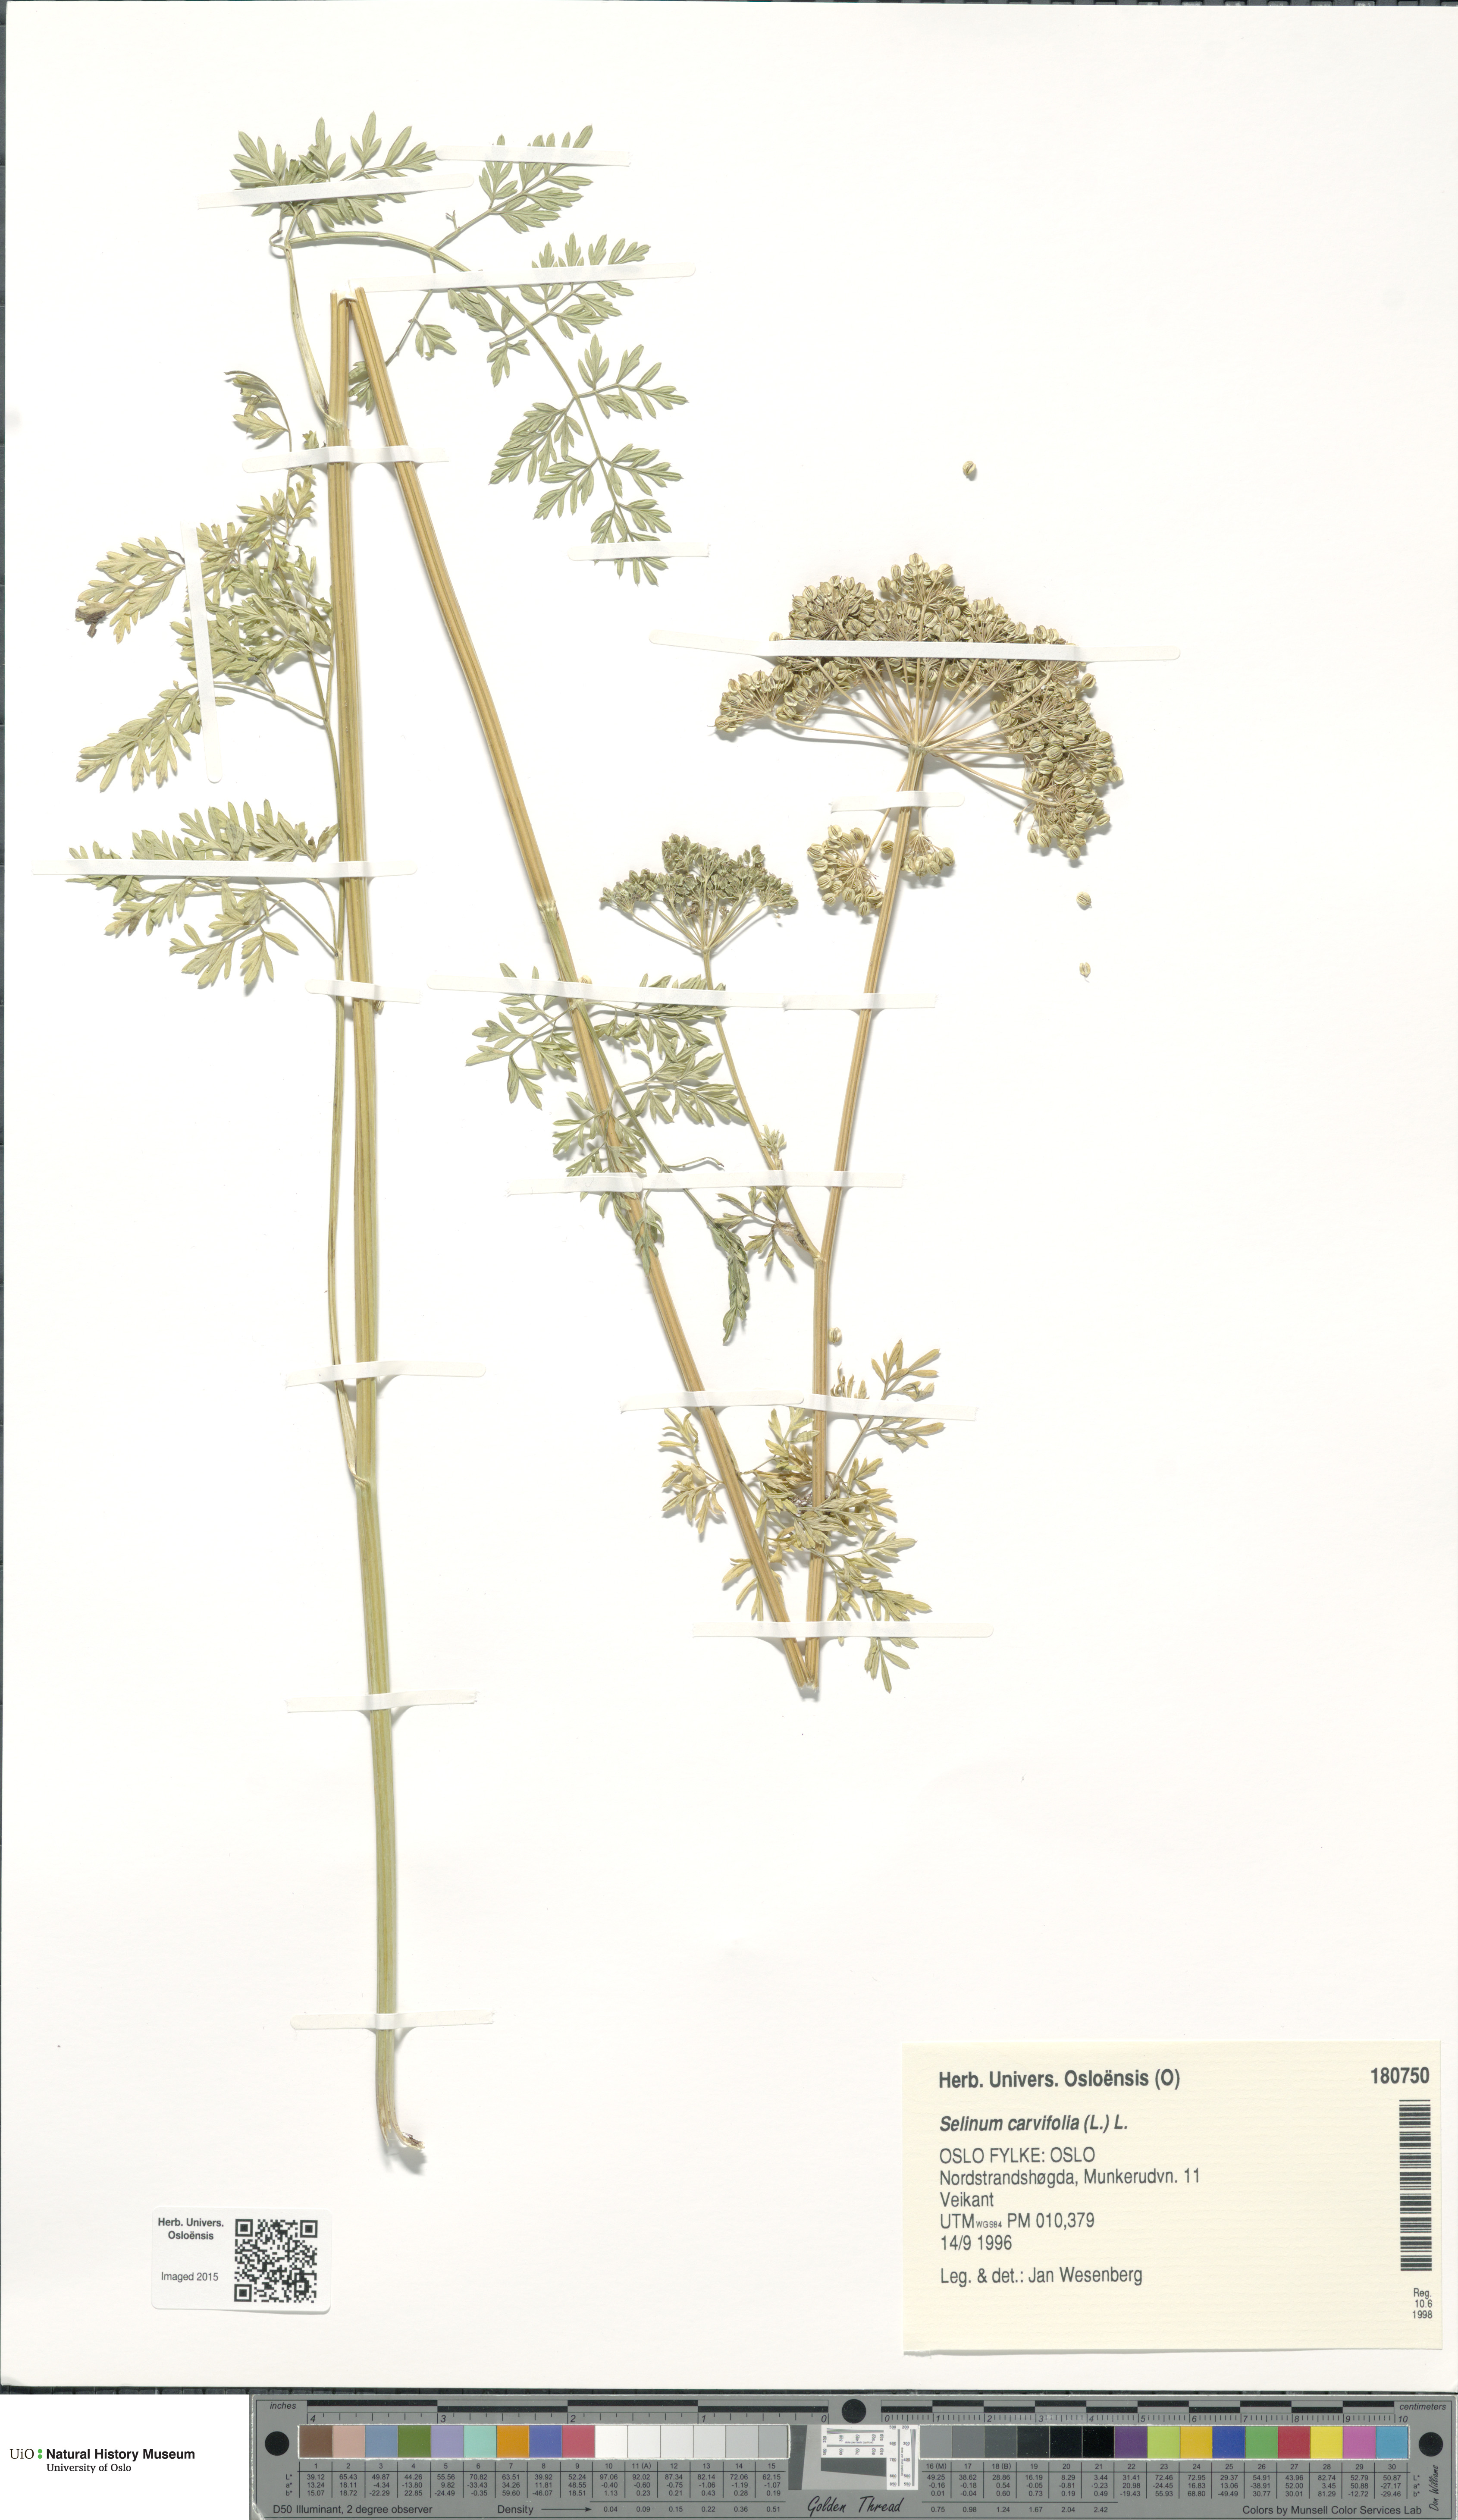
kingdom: Plantae
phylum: Tracheophyta
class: Magnoliopsida
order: Apiales
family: Apiaceae
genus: Selinum
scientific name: Selinum carvifolia
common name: Cambridge milk-parsley
